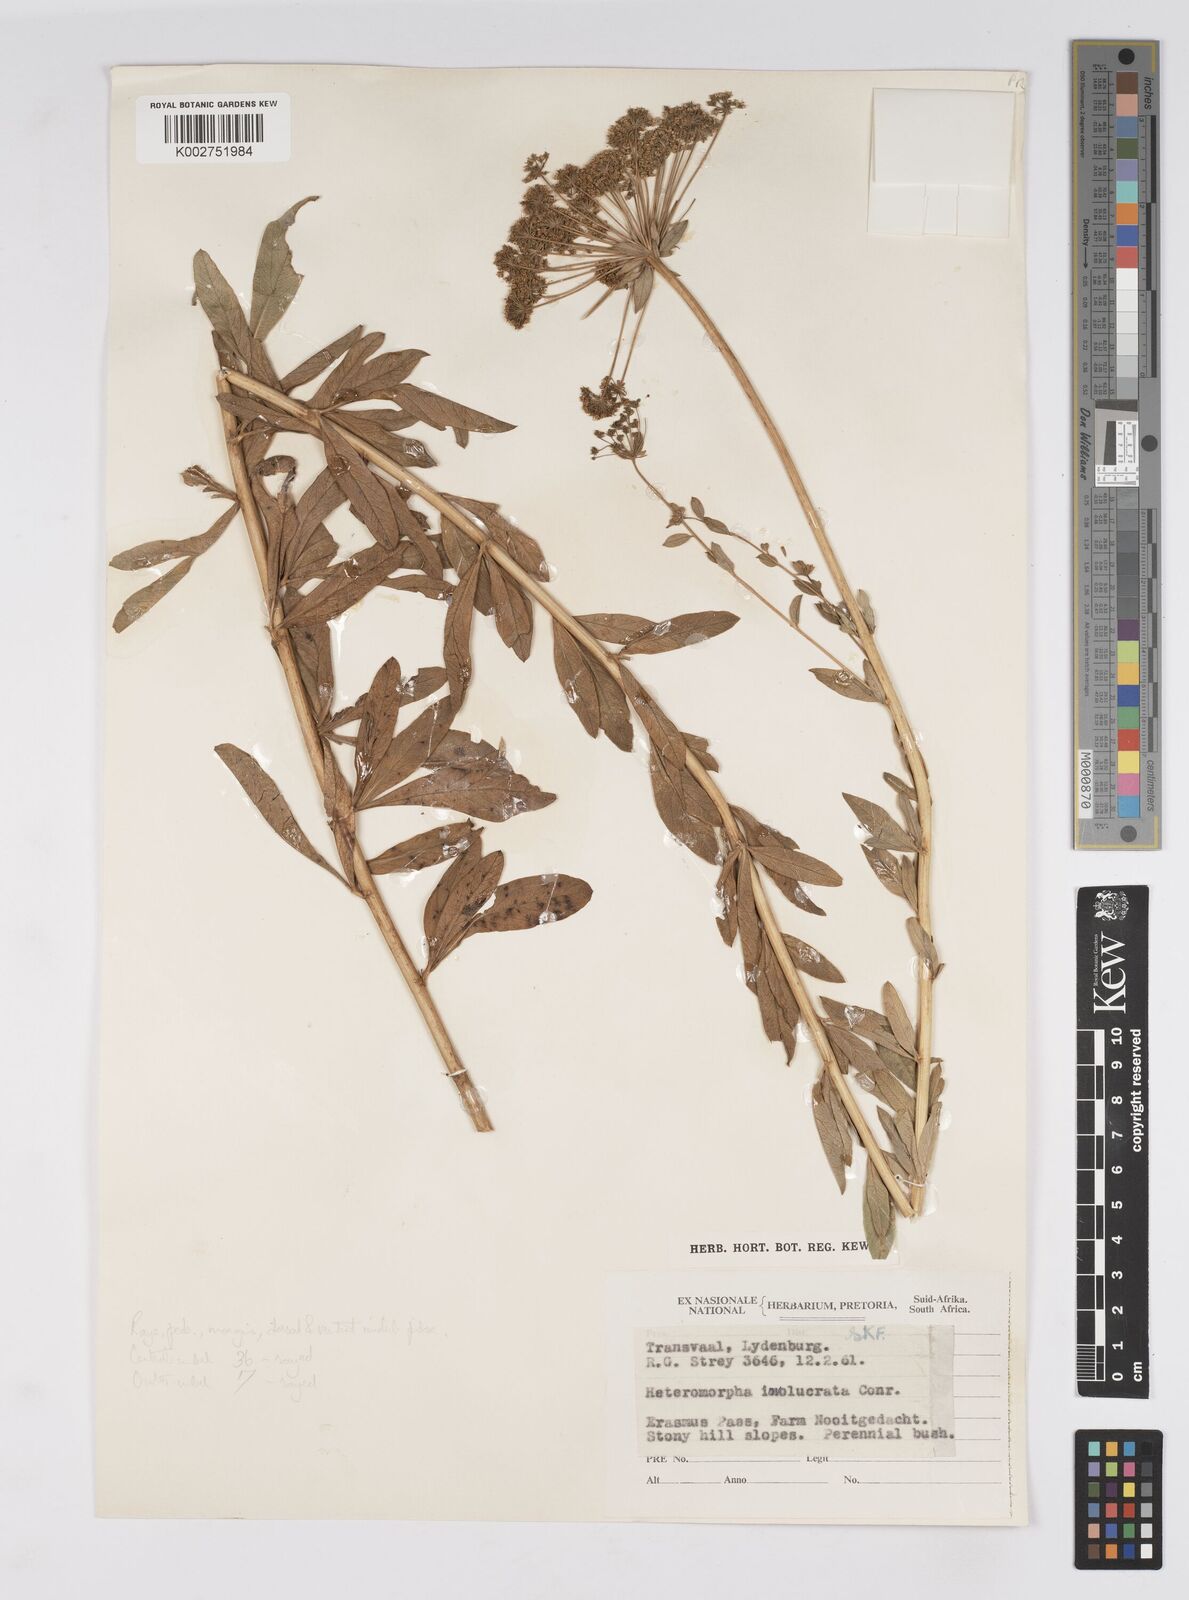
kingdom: Plantae
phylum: Tracheophyta
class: Magnoliopsida
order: Apiales
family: Apiaceae
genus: Heteromorpha
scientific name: Heteromorpha involucrata
